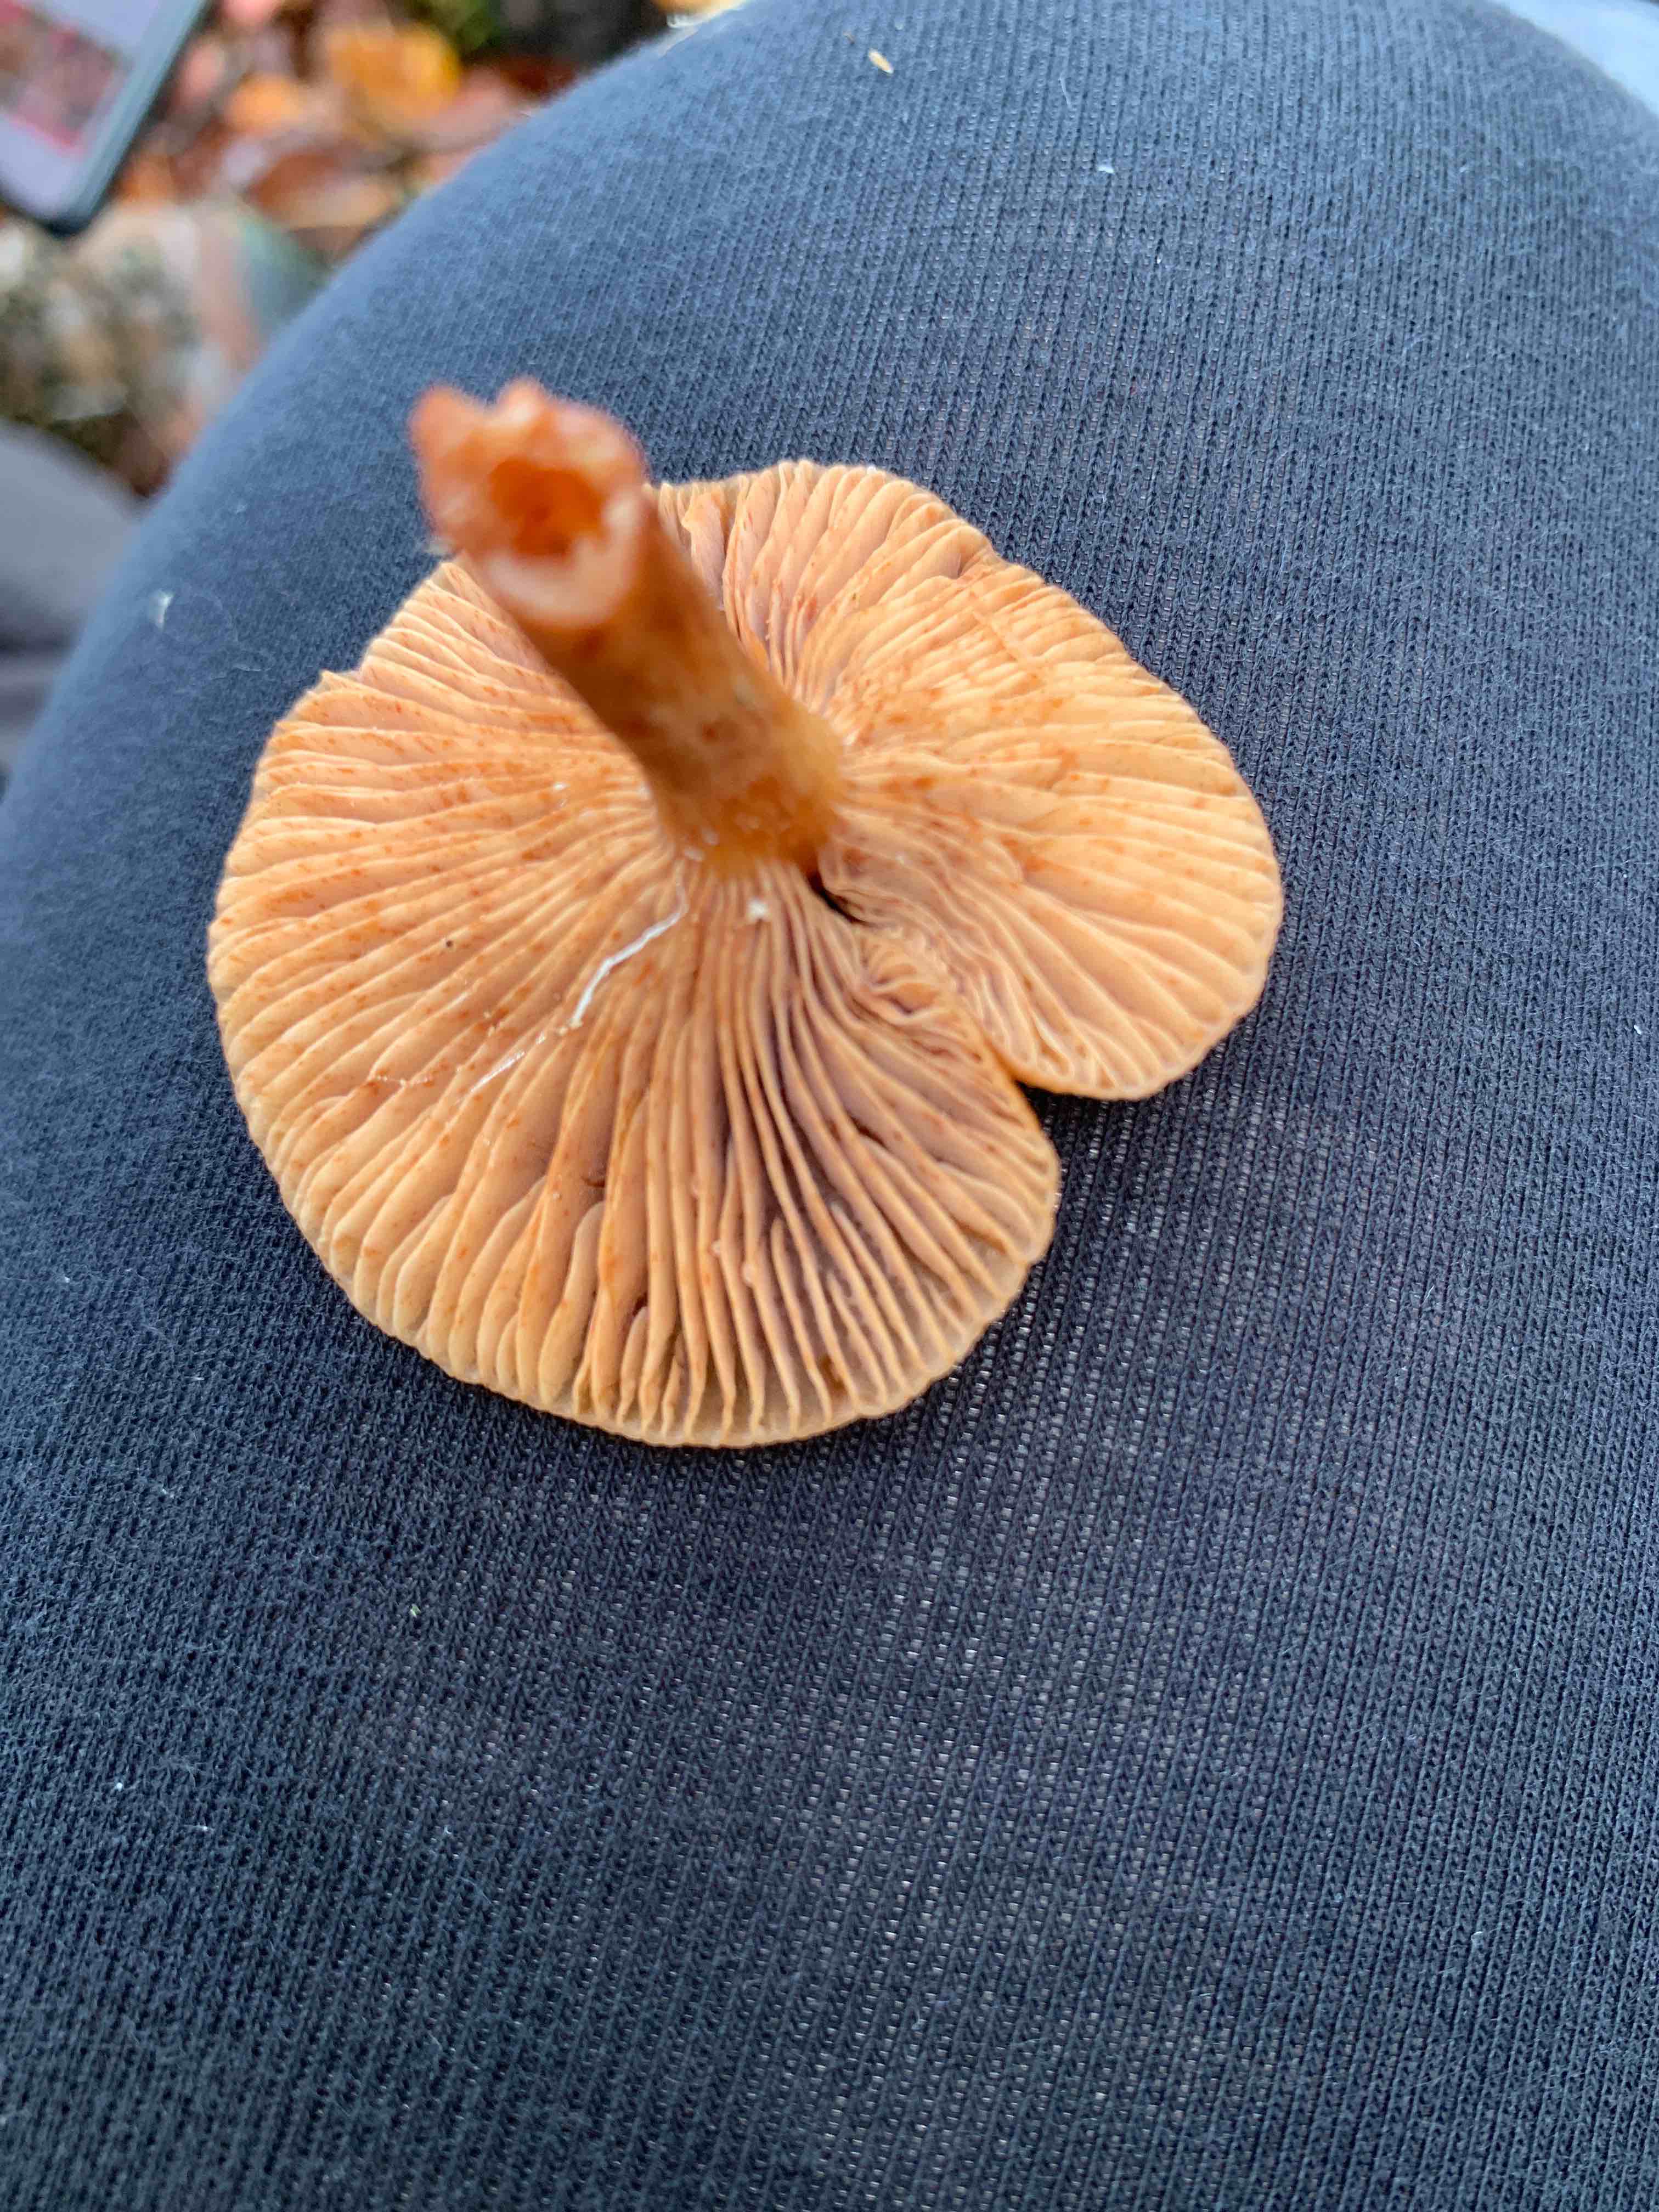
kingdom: Fungi
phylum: Basidiomycota
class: Agaricomycetes
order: Russulales
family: Russulaceae
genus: Lactarius
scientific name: Lactarius
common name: mælkehat
